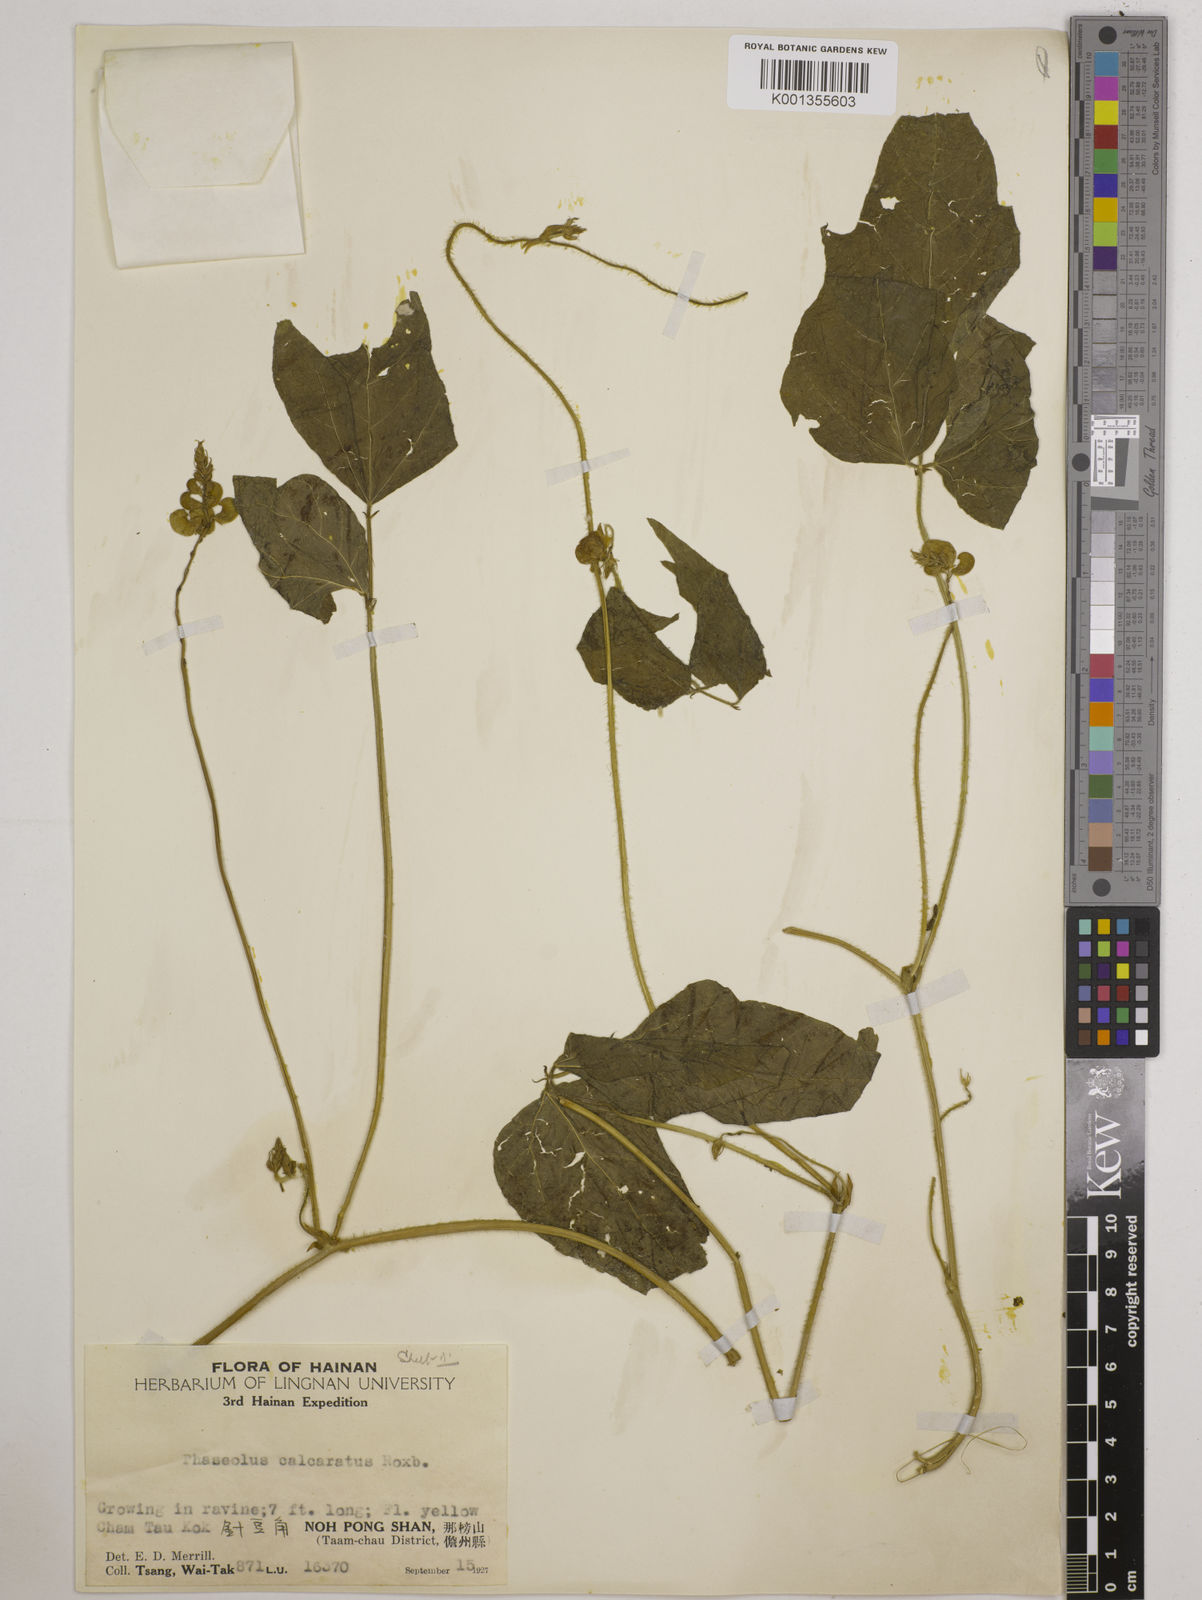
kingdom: Plantae
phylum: Tracheophyta
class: Magnoliopsida
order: Fabales
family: Fabaceae
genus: Vigna
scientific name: Vigna umbellata
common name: Oriental-bean
